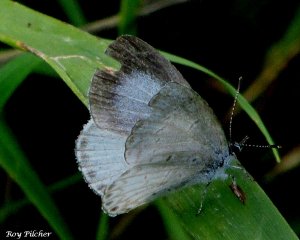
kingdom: Animalia
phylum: Arthropoda
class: Insecta
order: Lepidoptera
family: Lycaenidae
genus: Cyaniris
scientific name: Cyaniris neglecta
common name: Summer Azure
